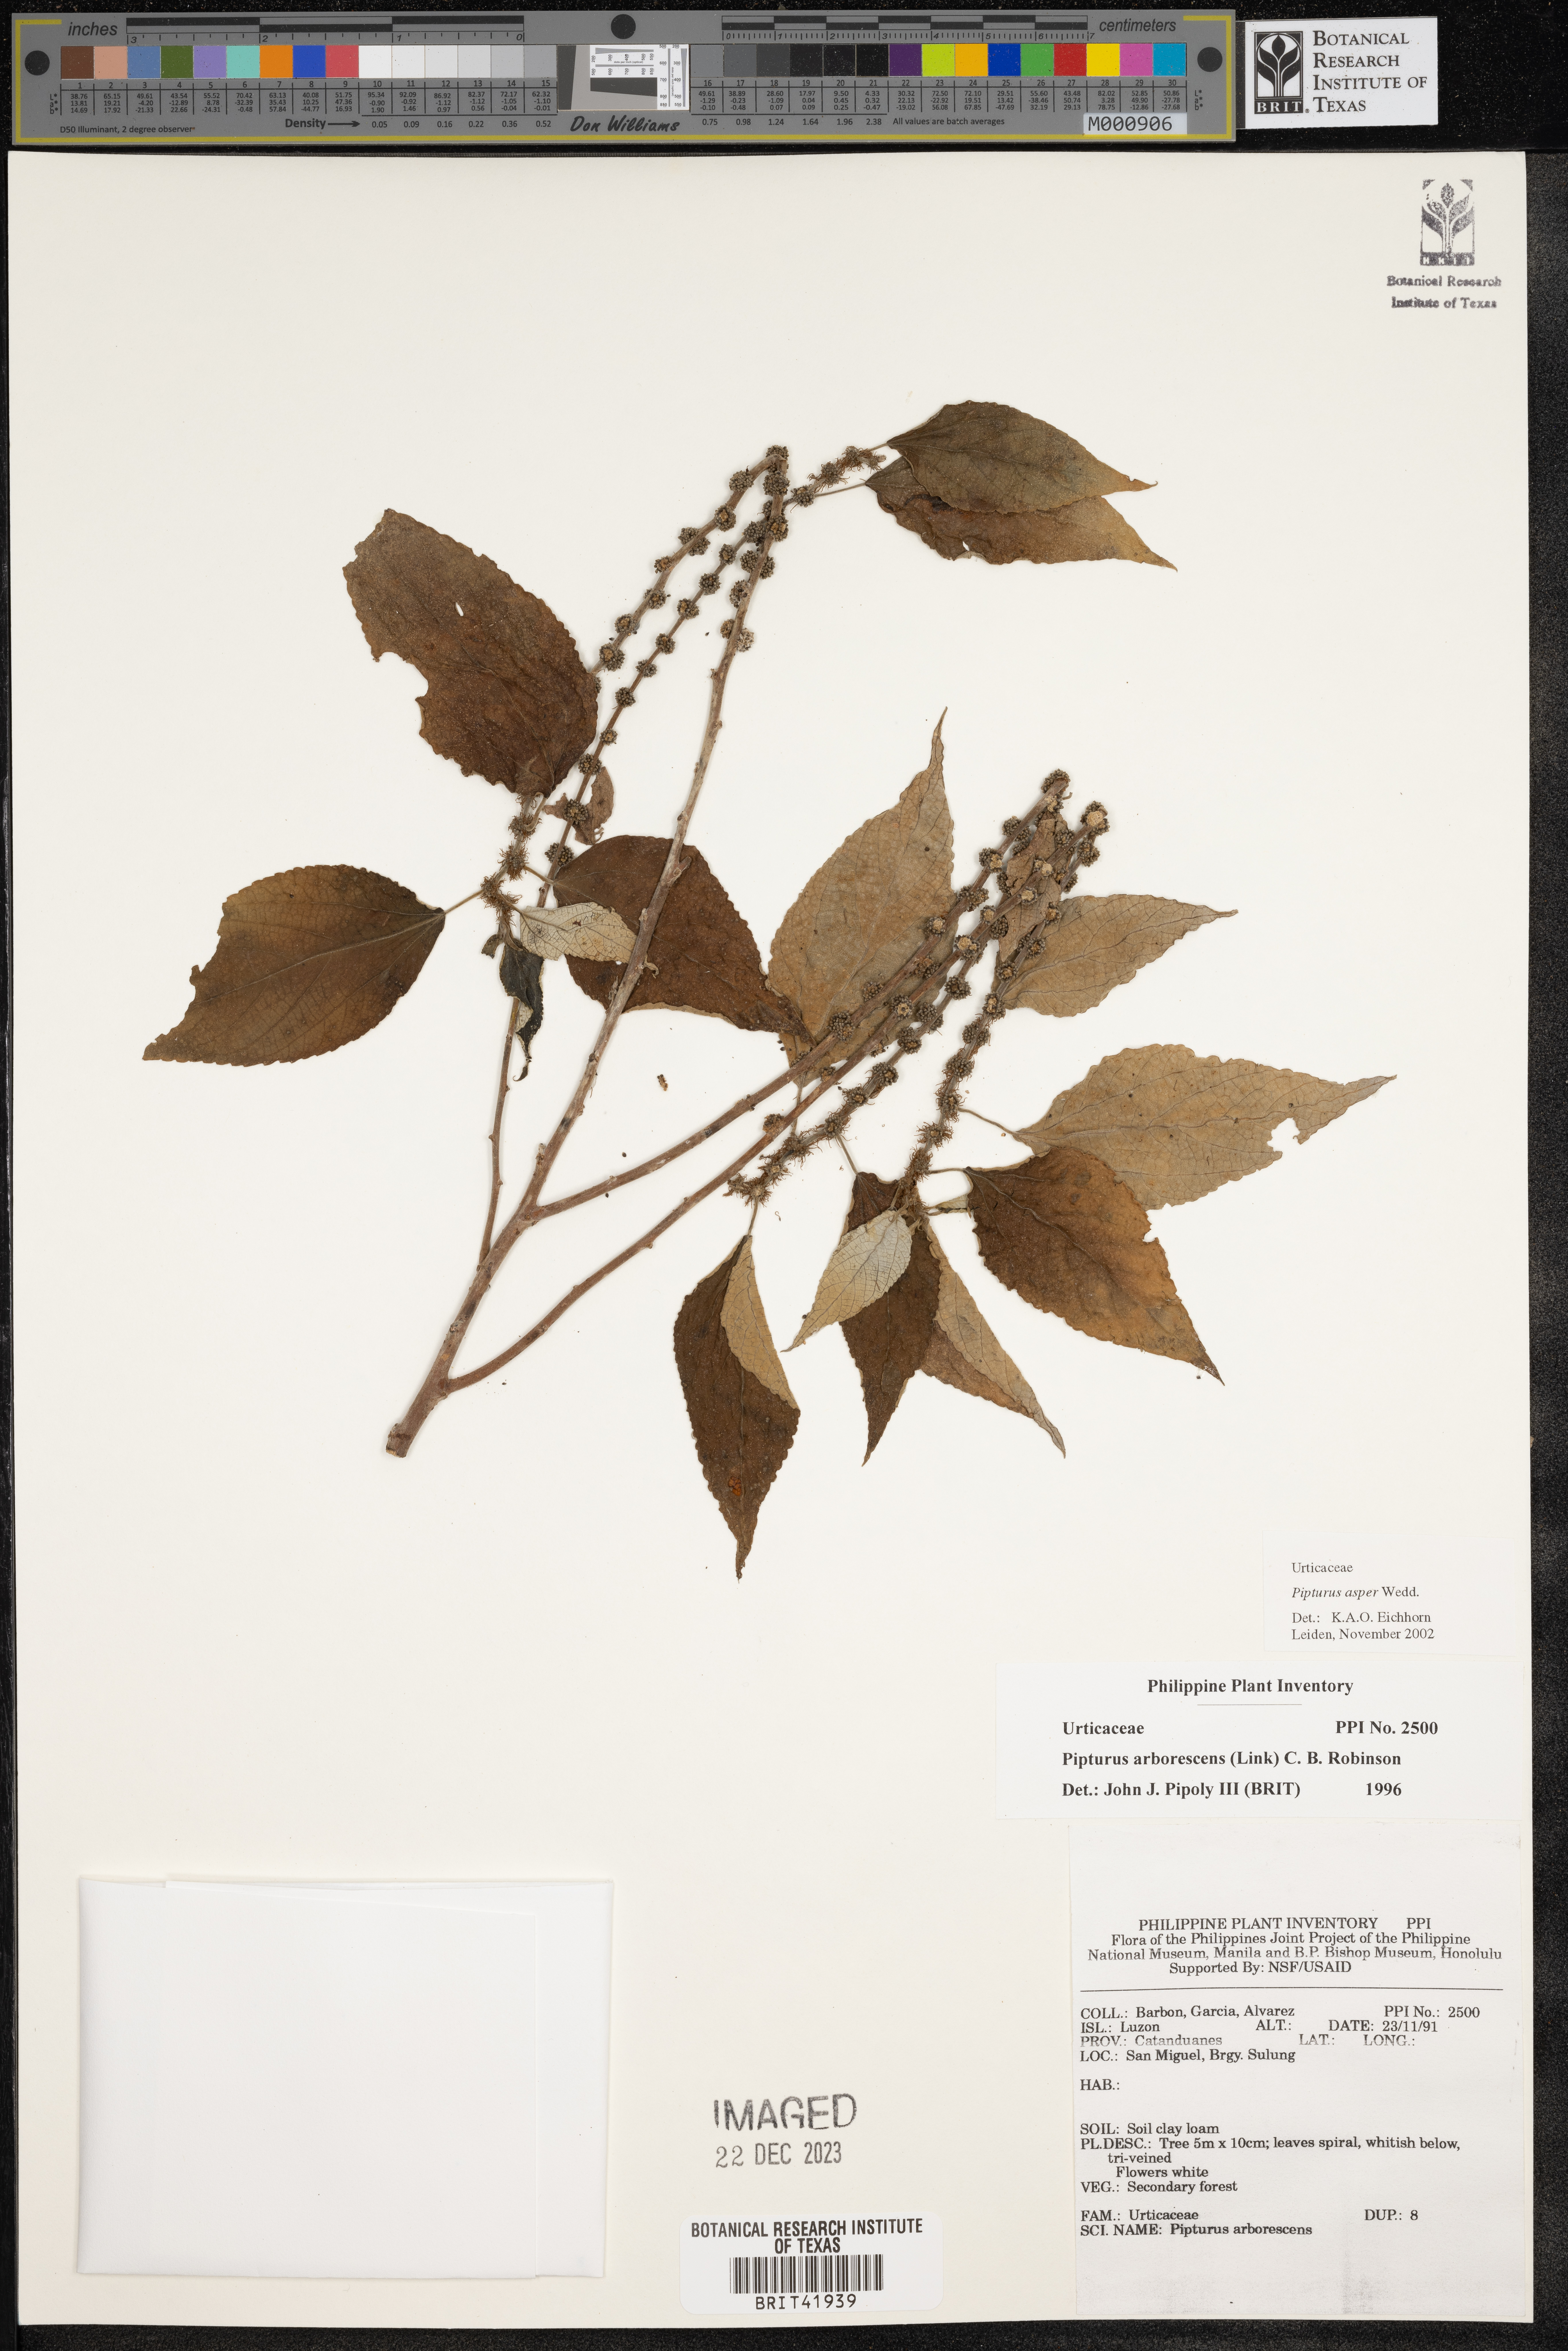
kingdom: Plantae
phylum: Tracheophyta
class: Magnoliopsida
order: Rosales
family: Urticaceae
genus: Pipturus
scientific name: Pipturus arborescens
